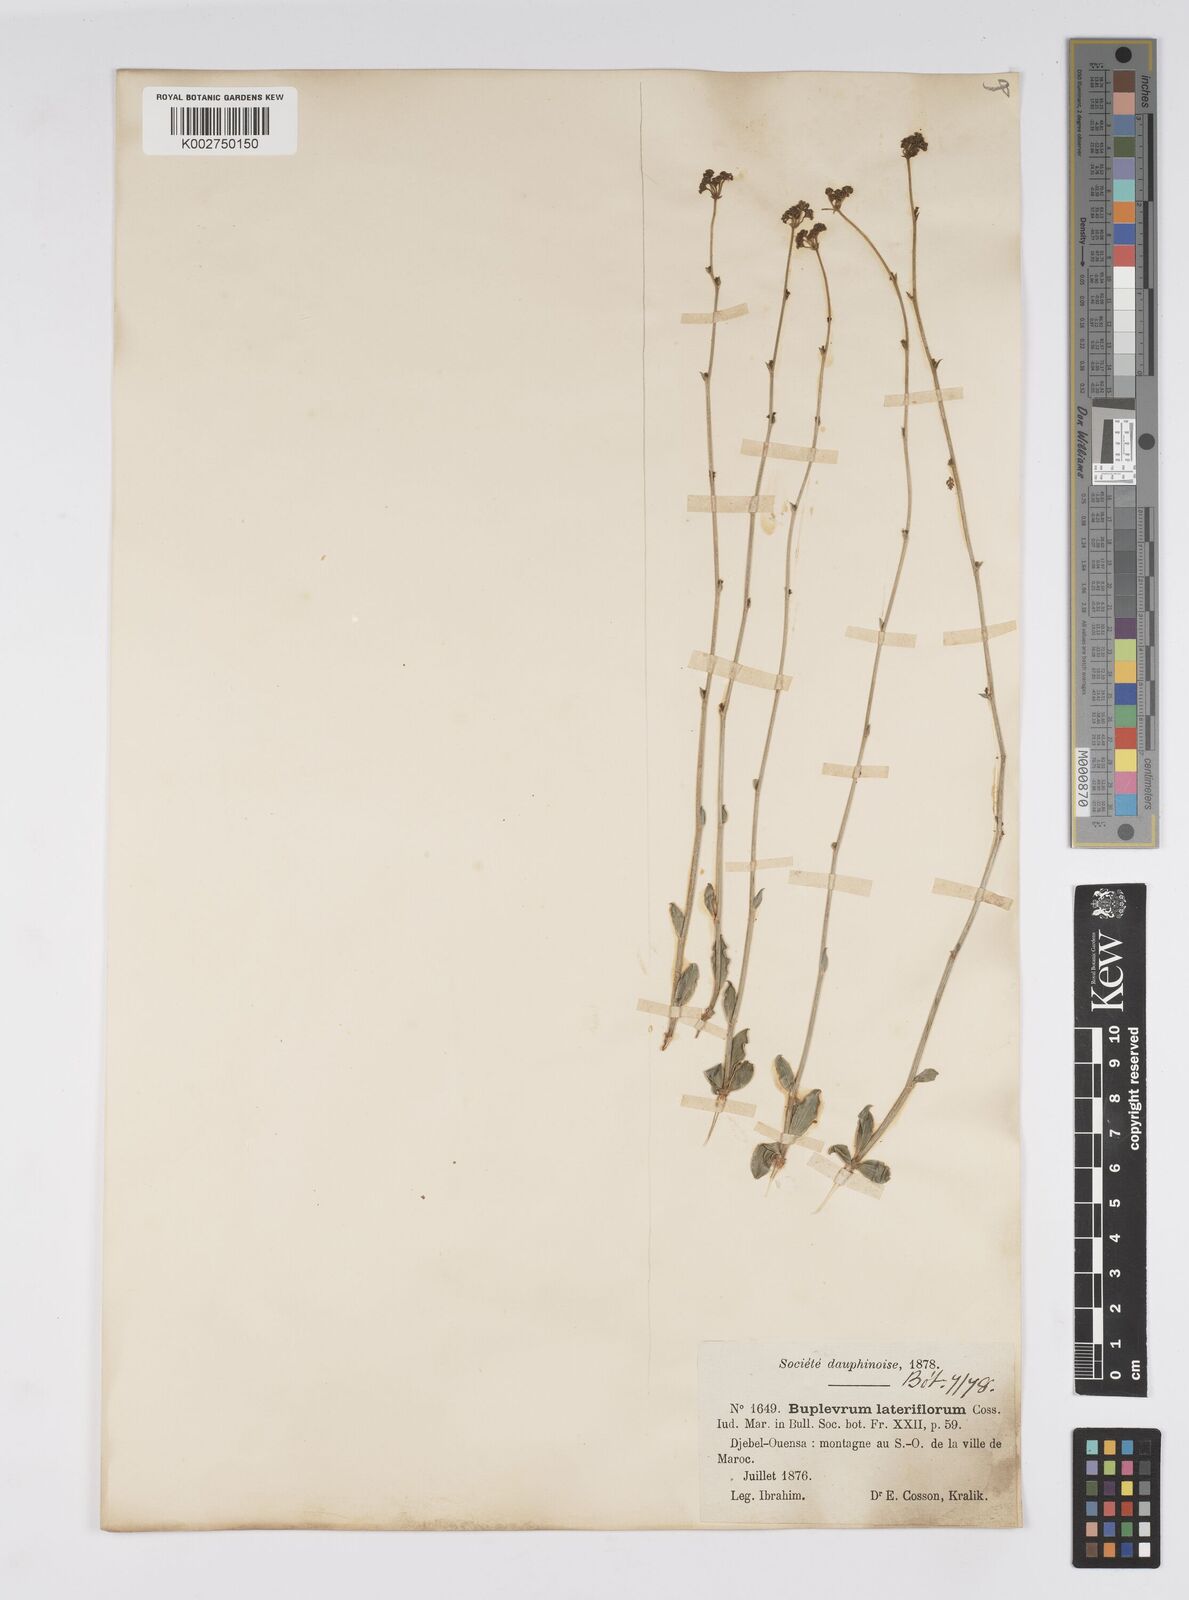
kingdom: Plantae
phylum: Tracheophyta
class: Magnoliopsida
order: Apiales
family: Apiaceae
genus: Bupleurum
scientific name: Bupleurum lateriflorum
